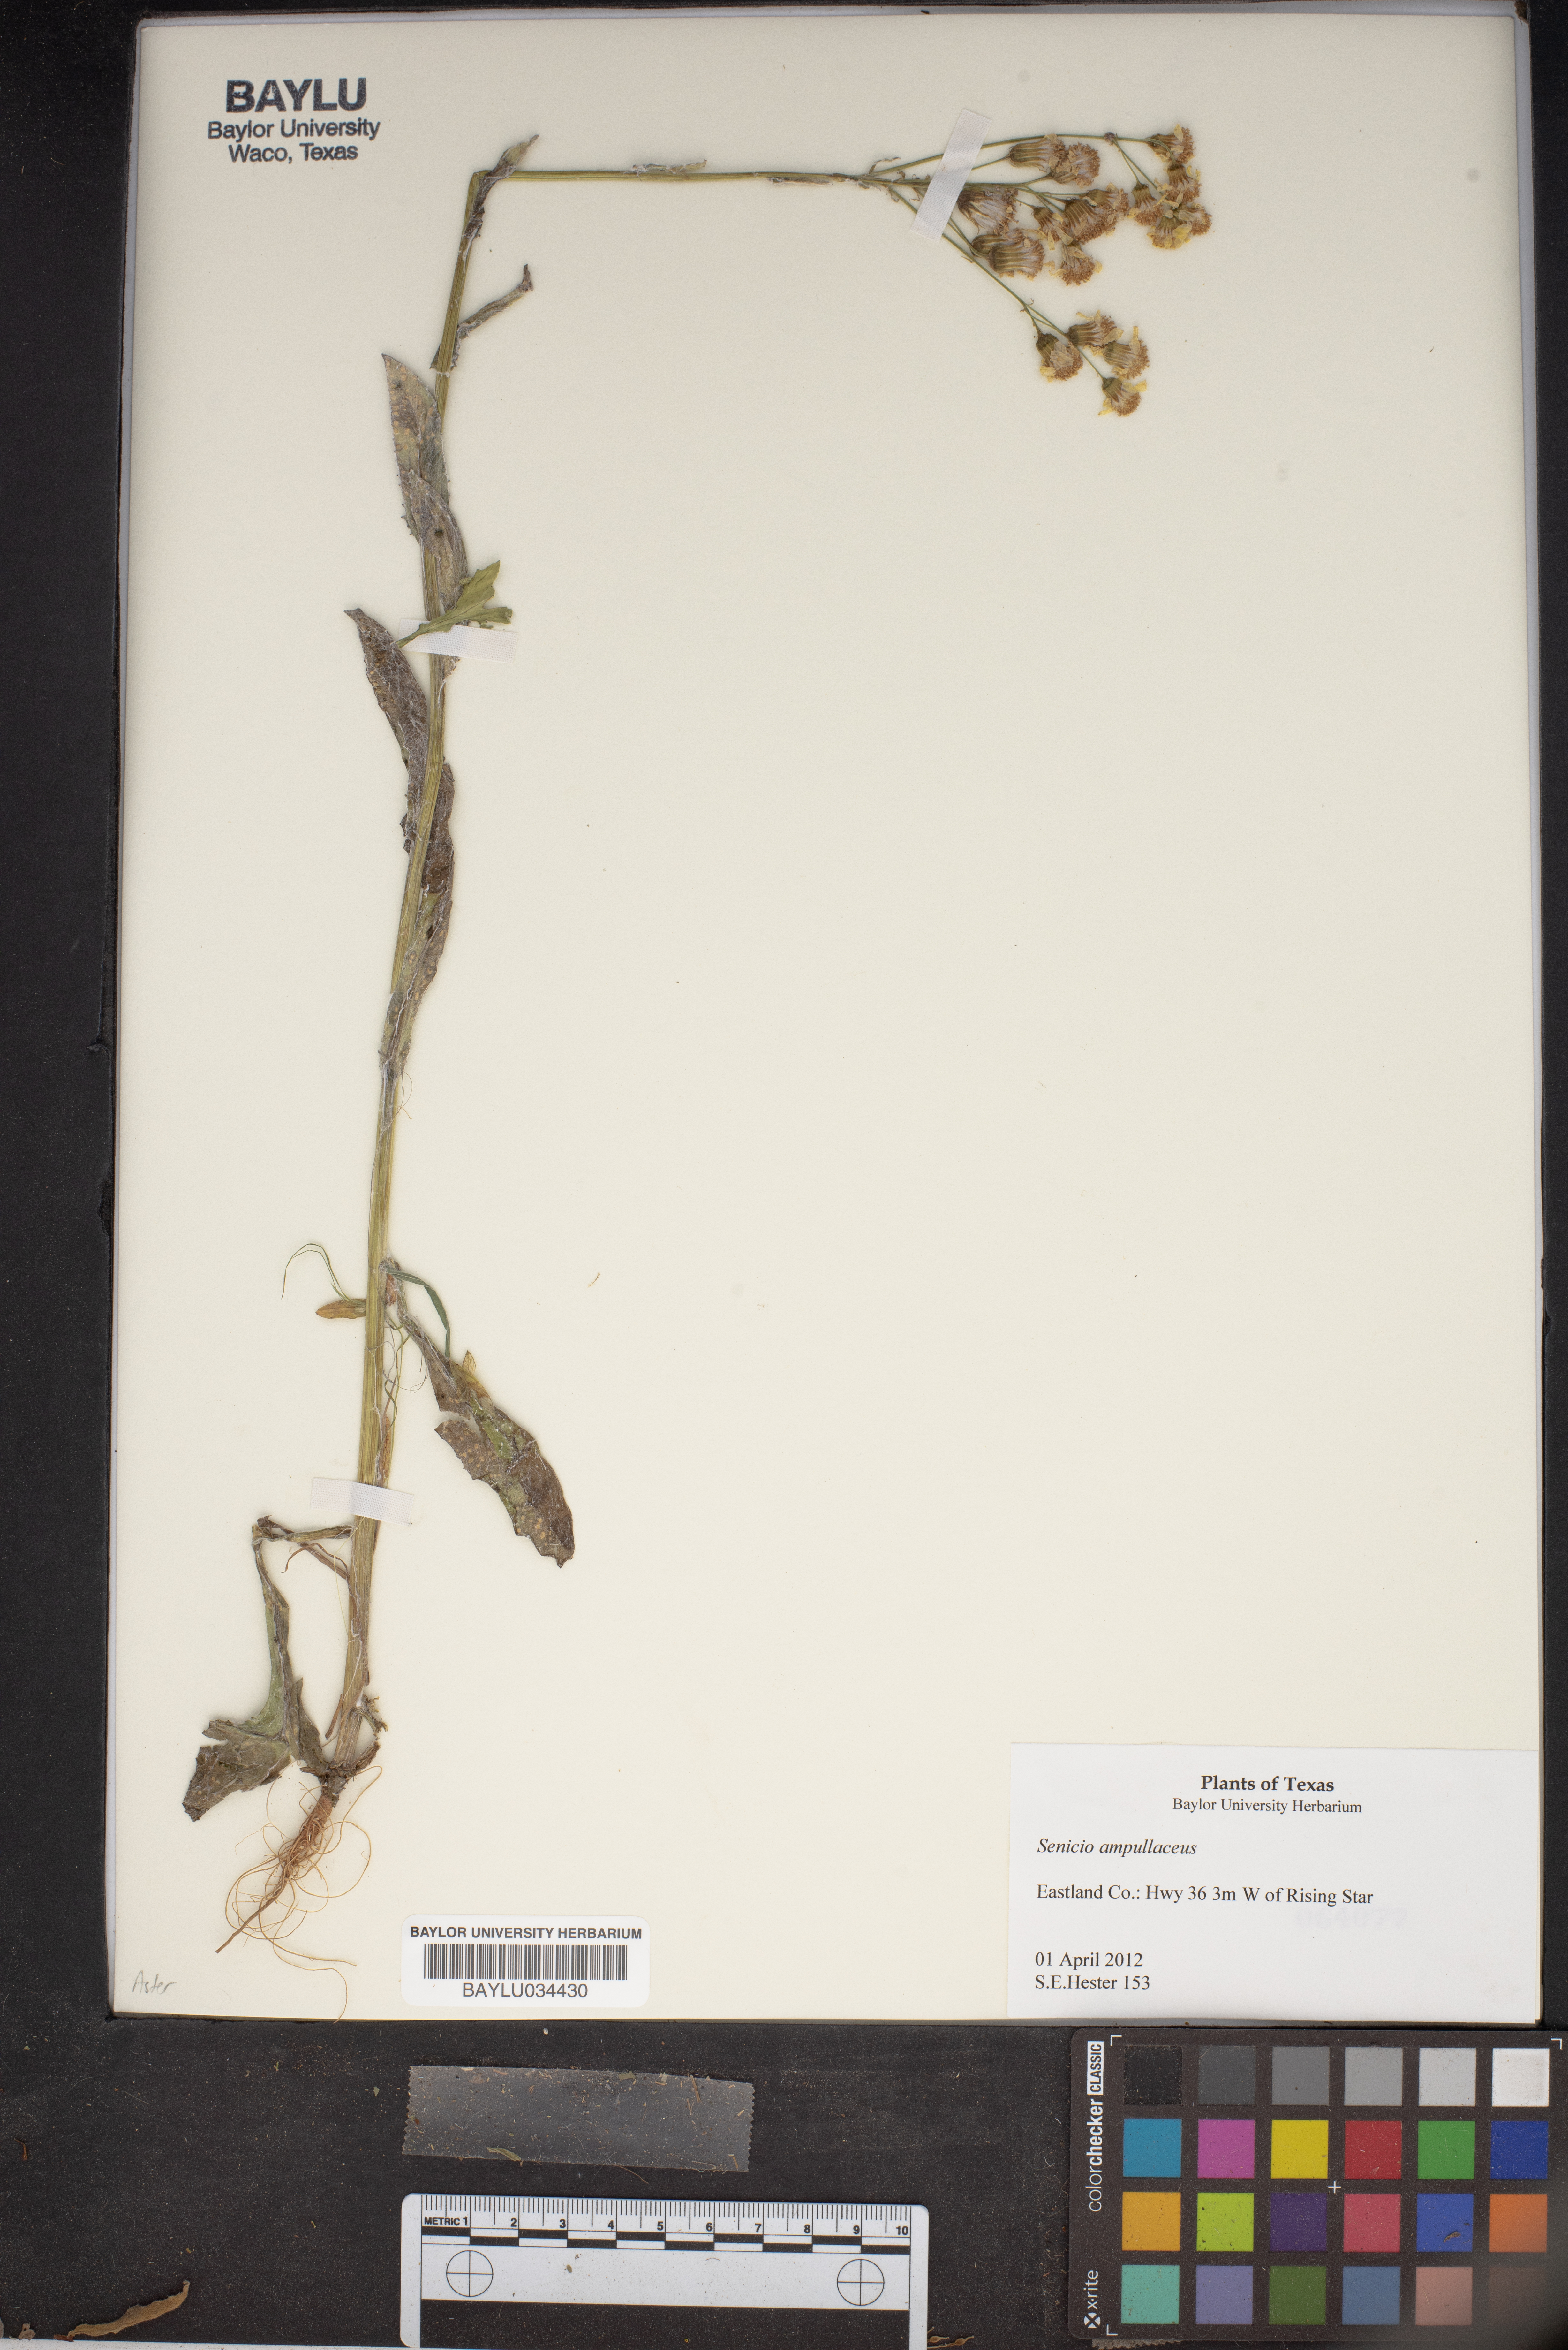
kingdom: Plantae
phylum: Tracheophyta
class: Magnoliopsida
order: Asterales
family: Asteraceae
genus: Senecio
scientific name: Senecio ampullaceus
